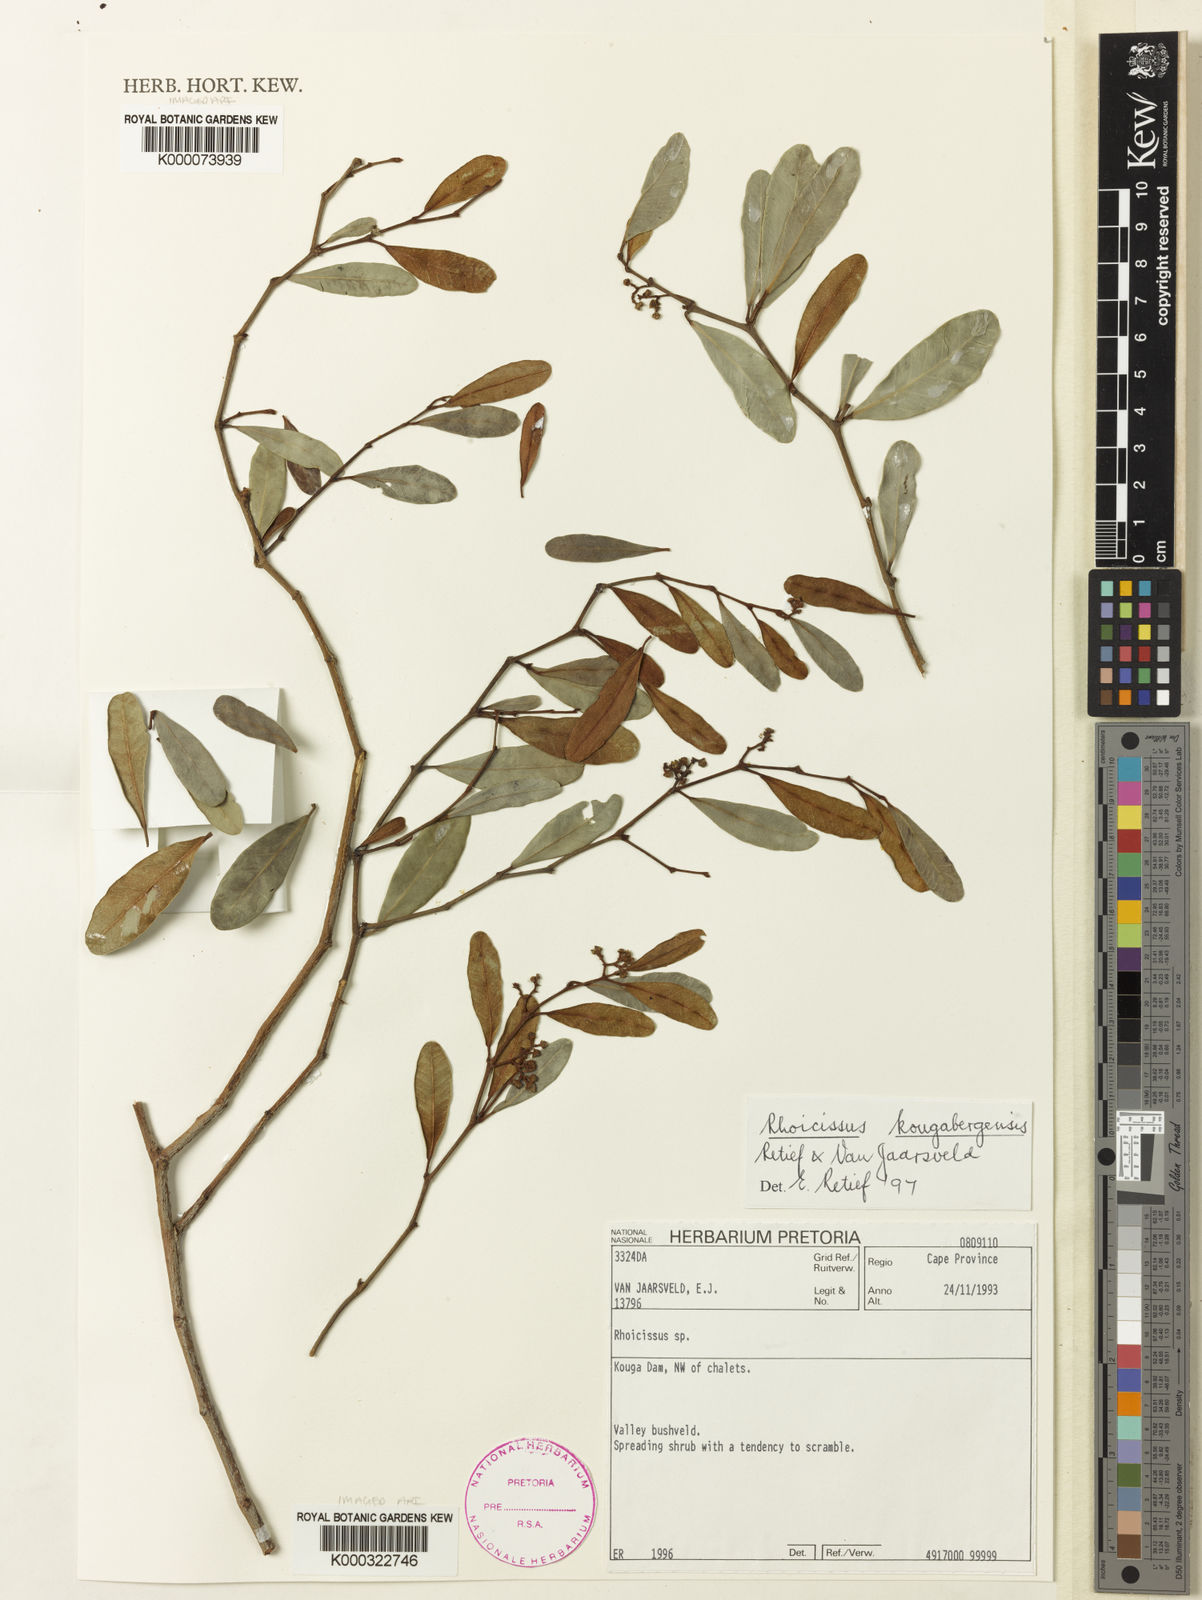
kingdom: Plantae
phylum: Tracheophyta
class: Magnoliopsida
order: Vitales
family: Vitaceae
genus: Rhoicissus
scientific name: Rhoicissus kougabergensis
